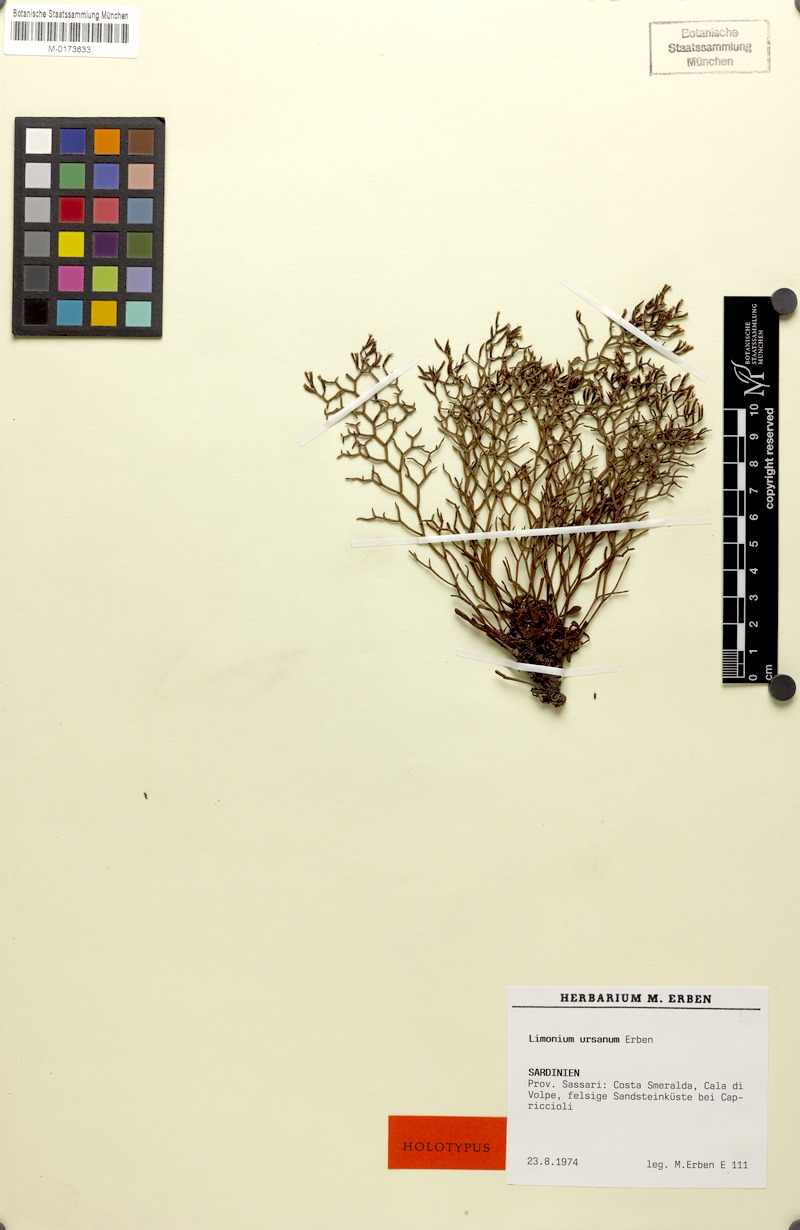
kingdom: Plantae
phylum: Tracheophyta
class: Magnoliopsida
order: Caryophyllales
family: Plumbaginaceae
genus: Limonium
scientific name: Limonium ursanum
